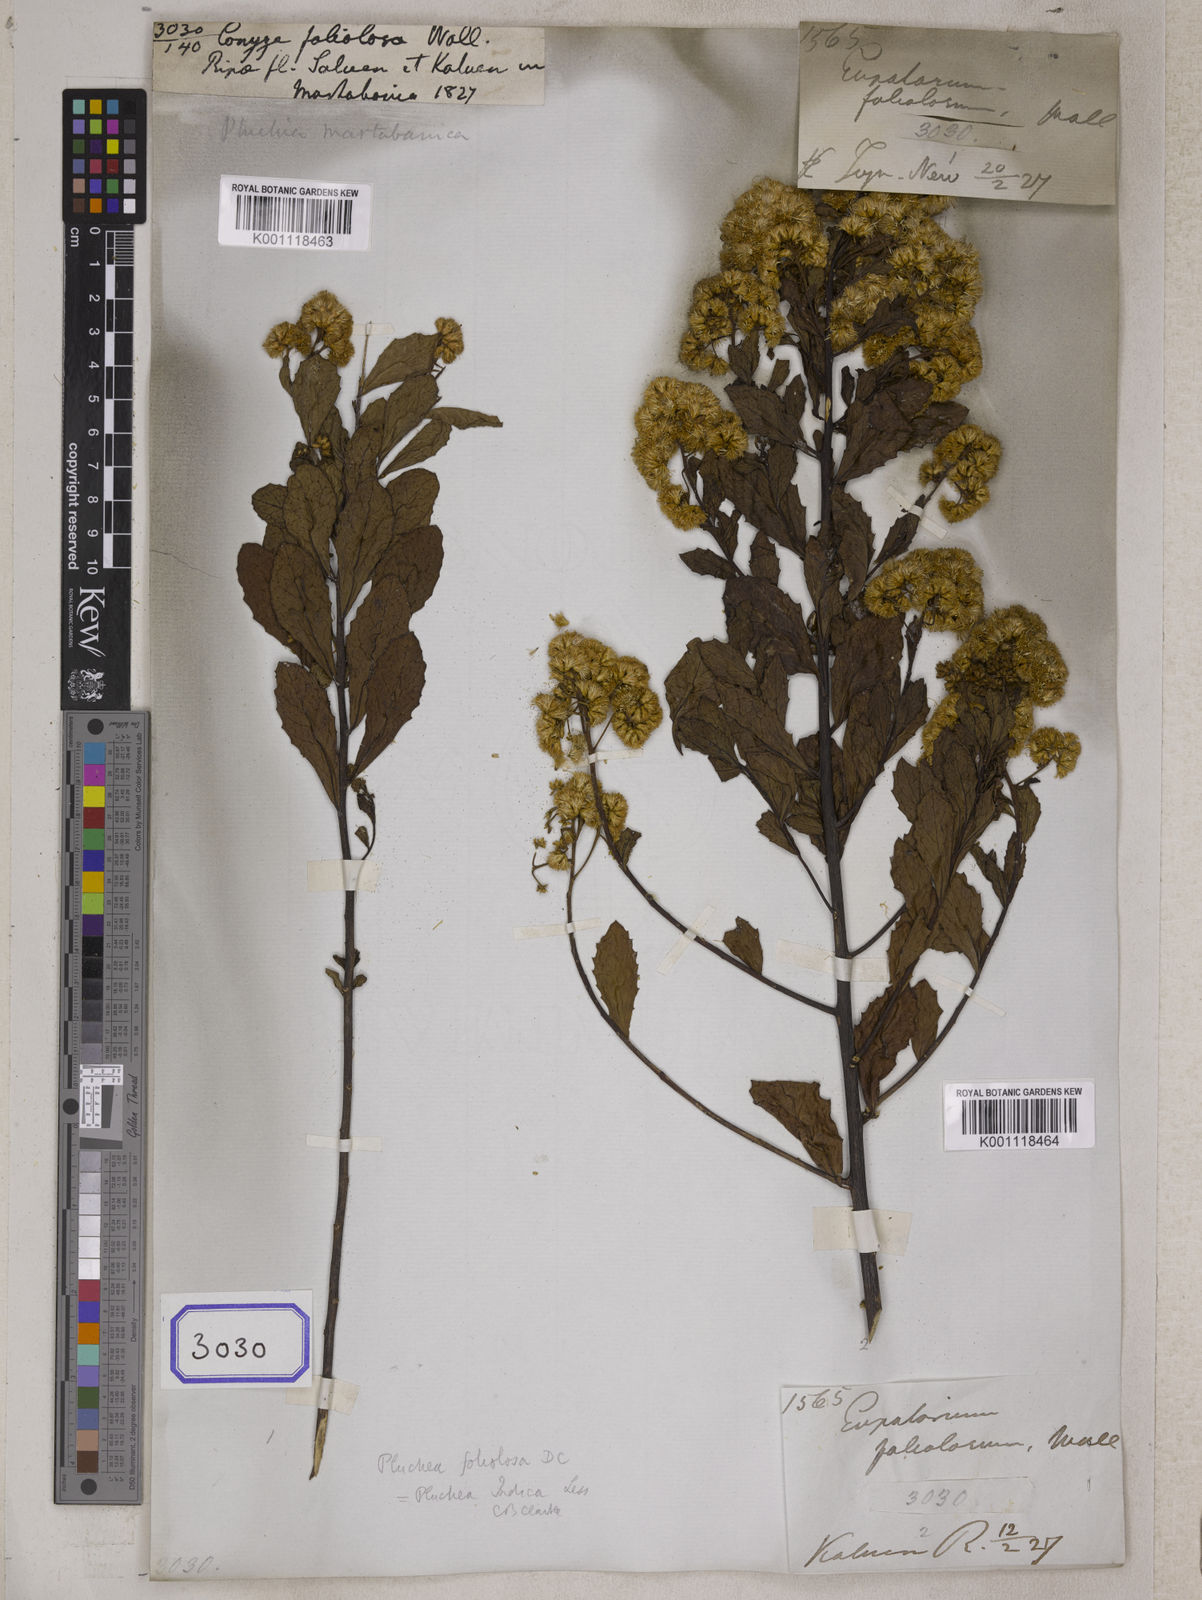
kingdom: Plantae
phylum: Tracheophyta
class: Magnoliopsida
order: Asterales
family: Asteraceae
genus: Pluchea
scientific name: Pluchea indica
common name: Indian fleabane
